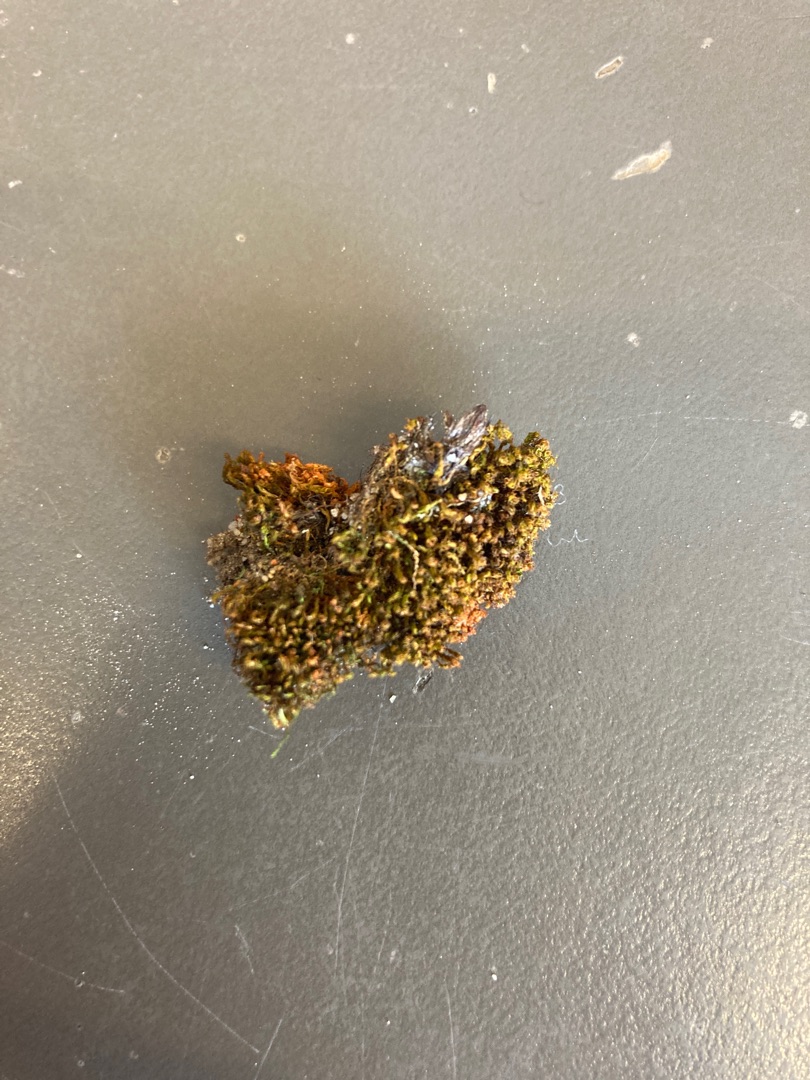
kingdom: Plantae
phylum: Bryophyta
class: Bryopsida
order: Pottiales
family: Pottiaceae
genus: Vinealobryum
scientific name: Vinealobryum insulanum
